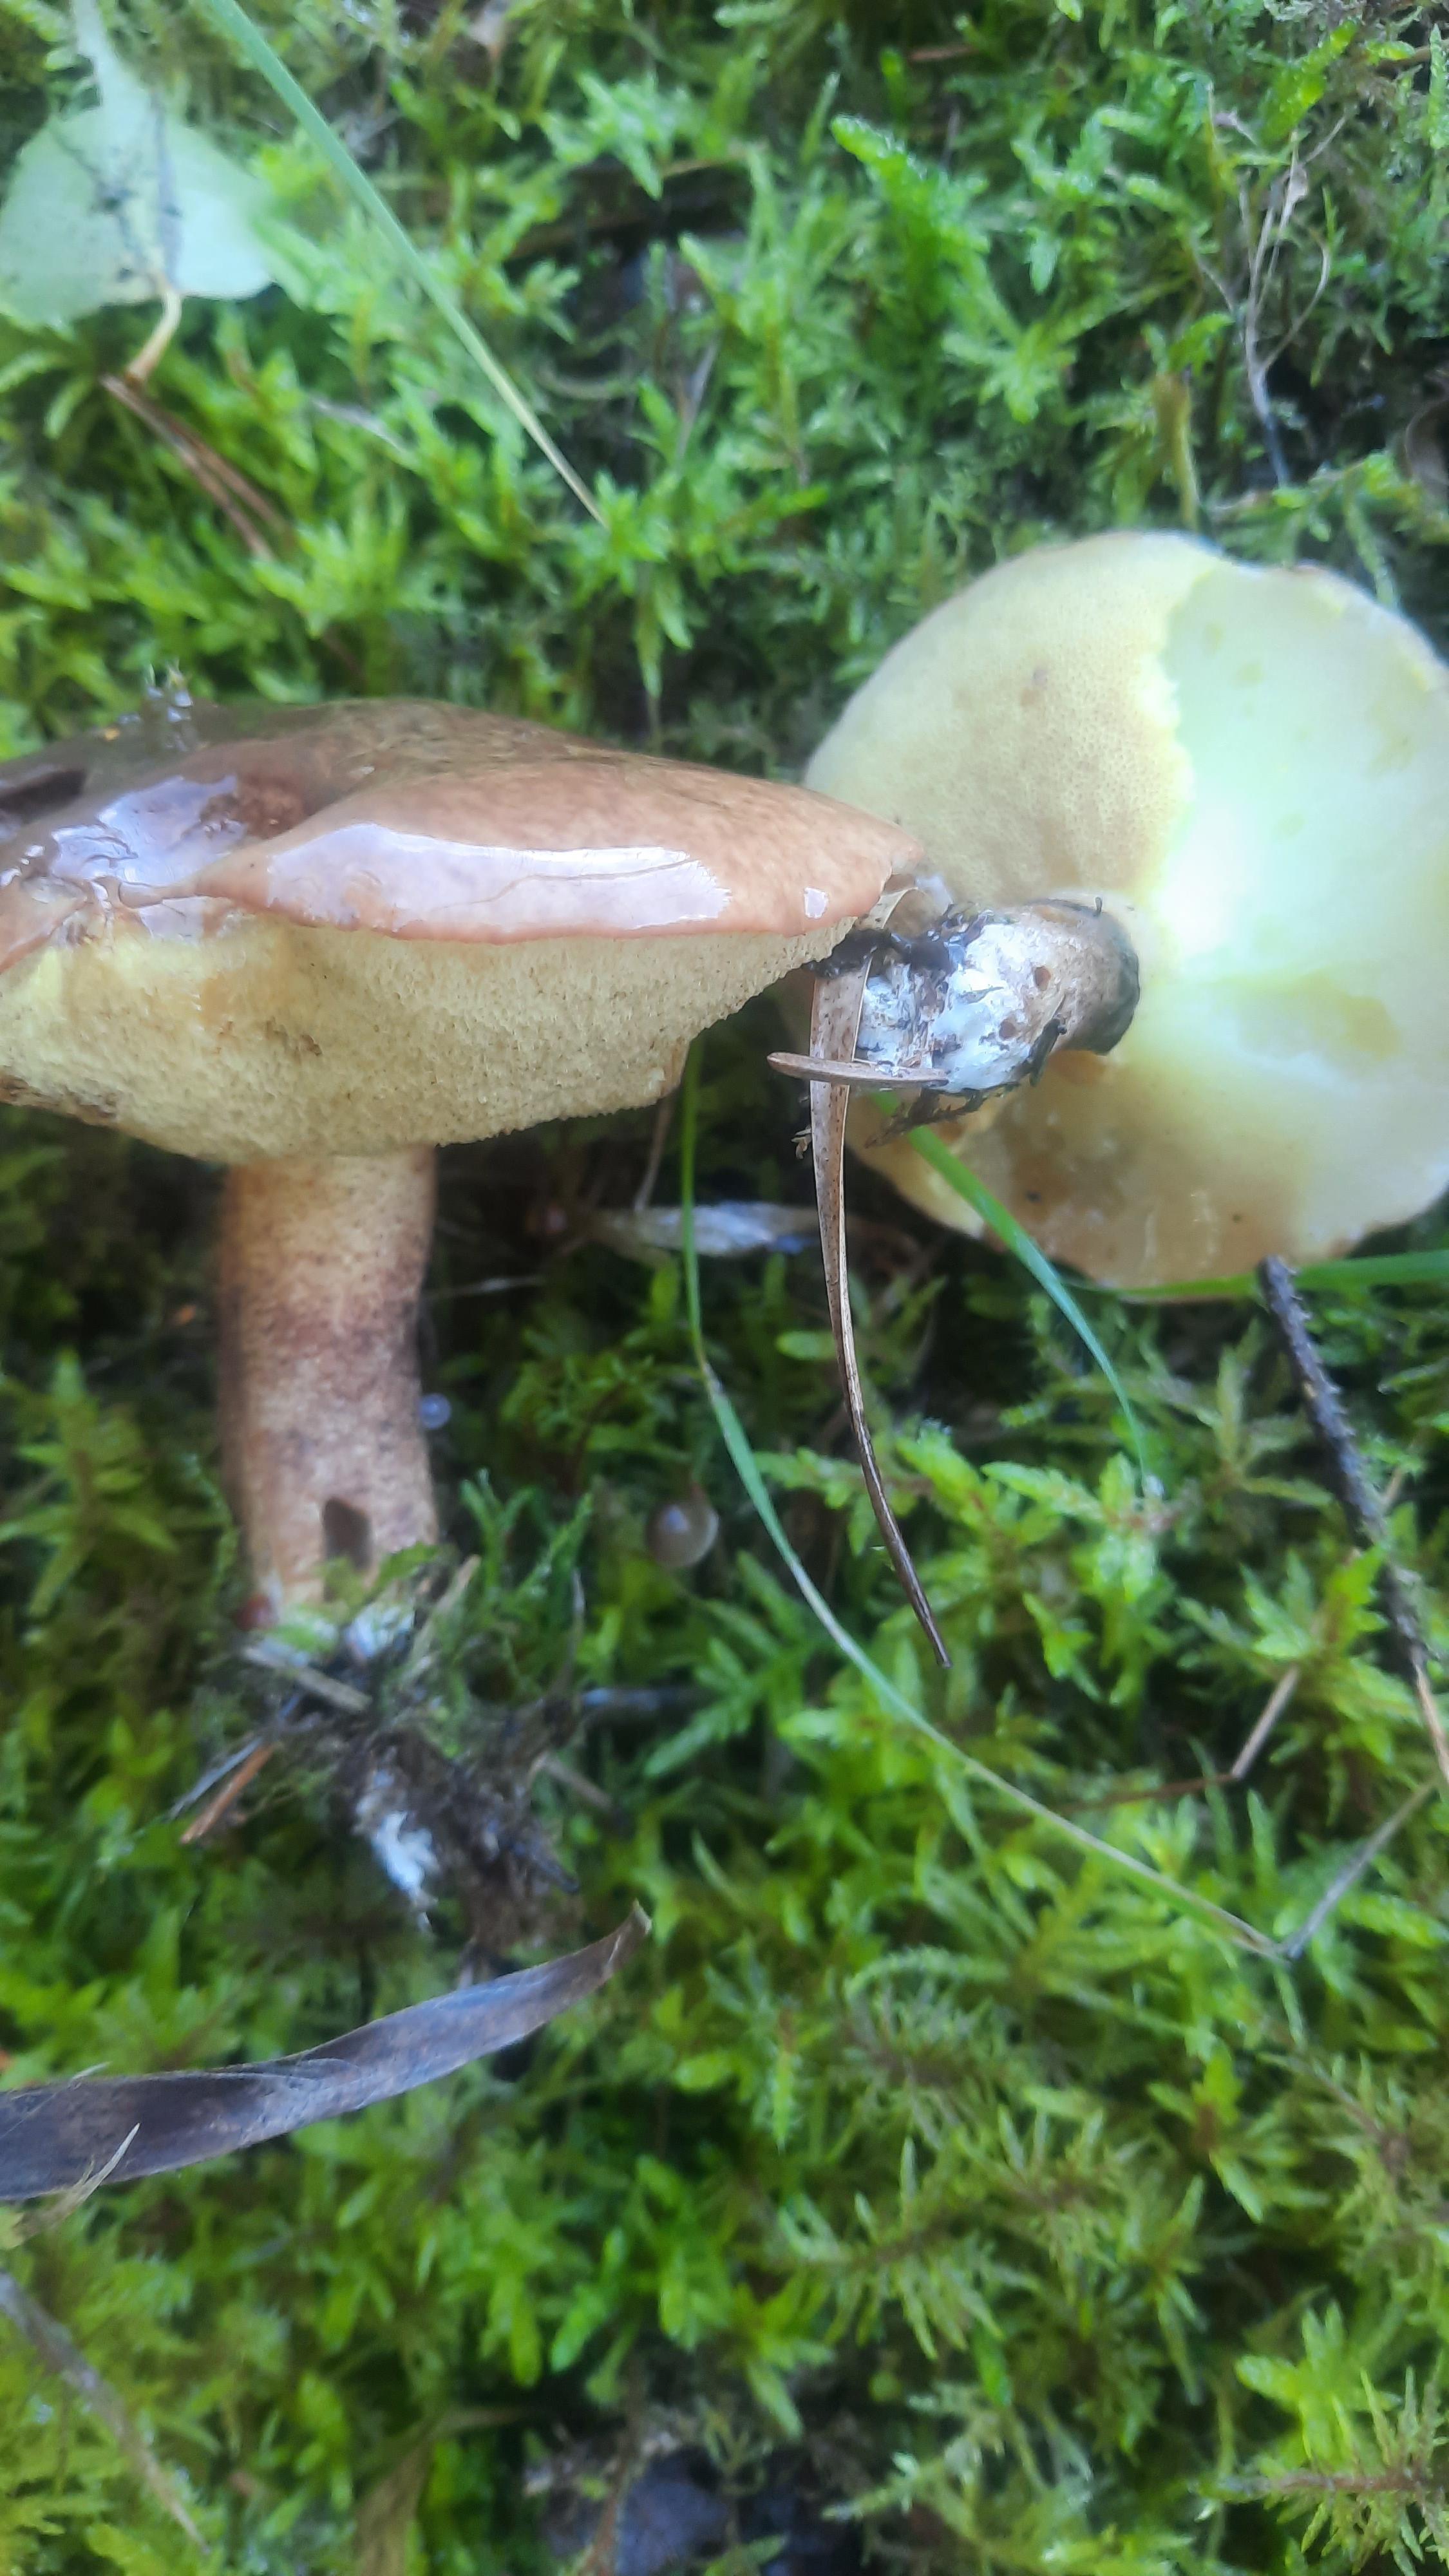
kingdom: Fungi
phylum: Basidiomycota
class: Agaricomycetes
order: Boletales
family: Suillaceae
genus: Suillus
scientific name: Suillus luteus
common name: brungul slimrørhat
